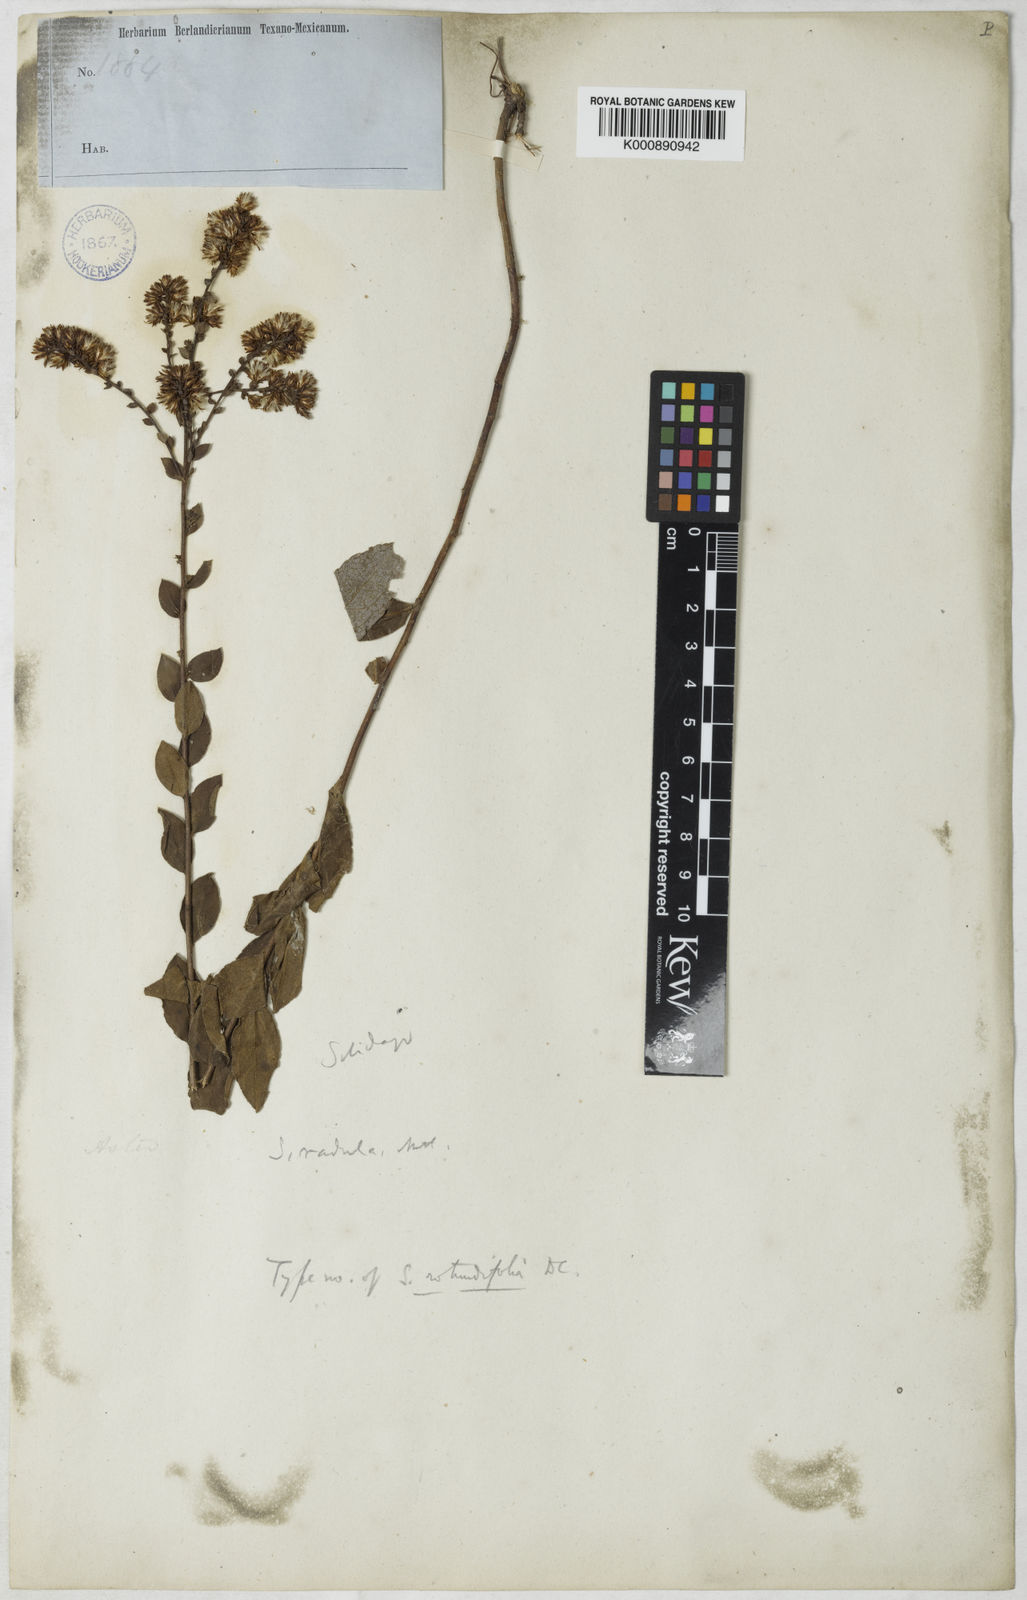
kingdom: Plantae
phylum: Tracheophyta
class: Magnoliopsida
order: Asterales
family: Asteraceae
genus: Solidago
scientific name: Solidago radula
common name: Western rough goldenrod
